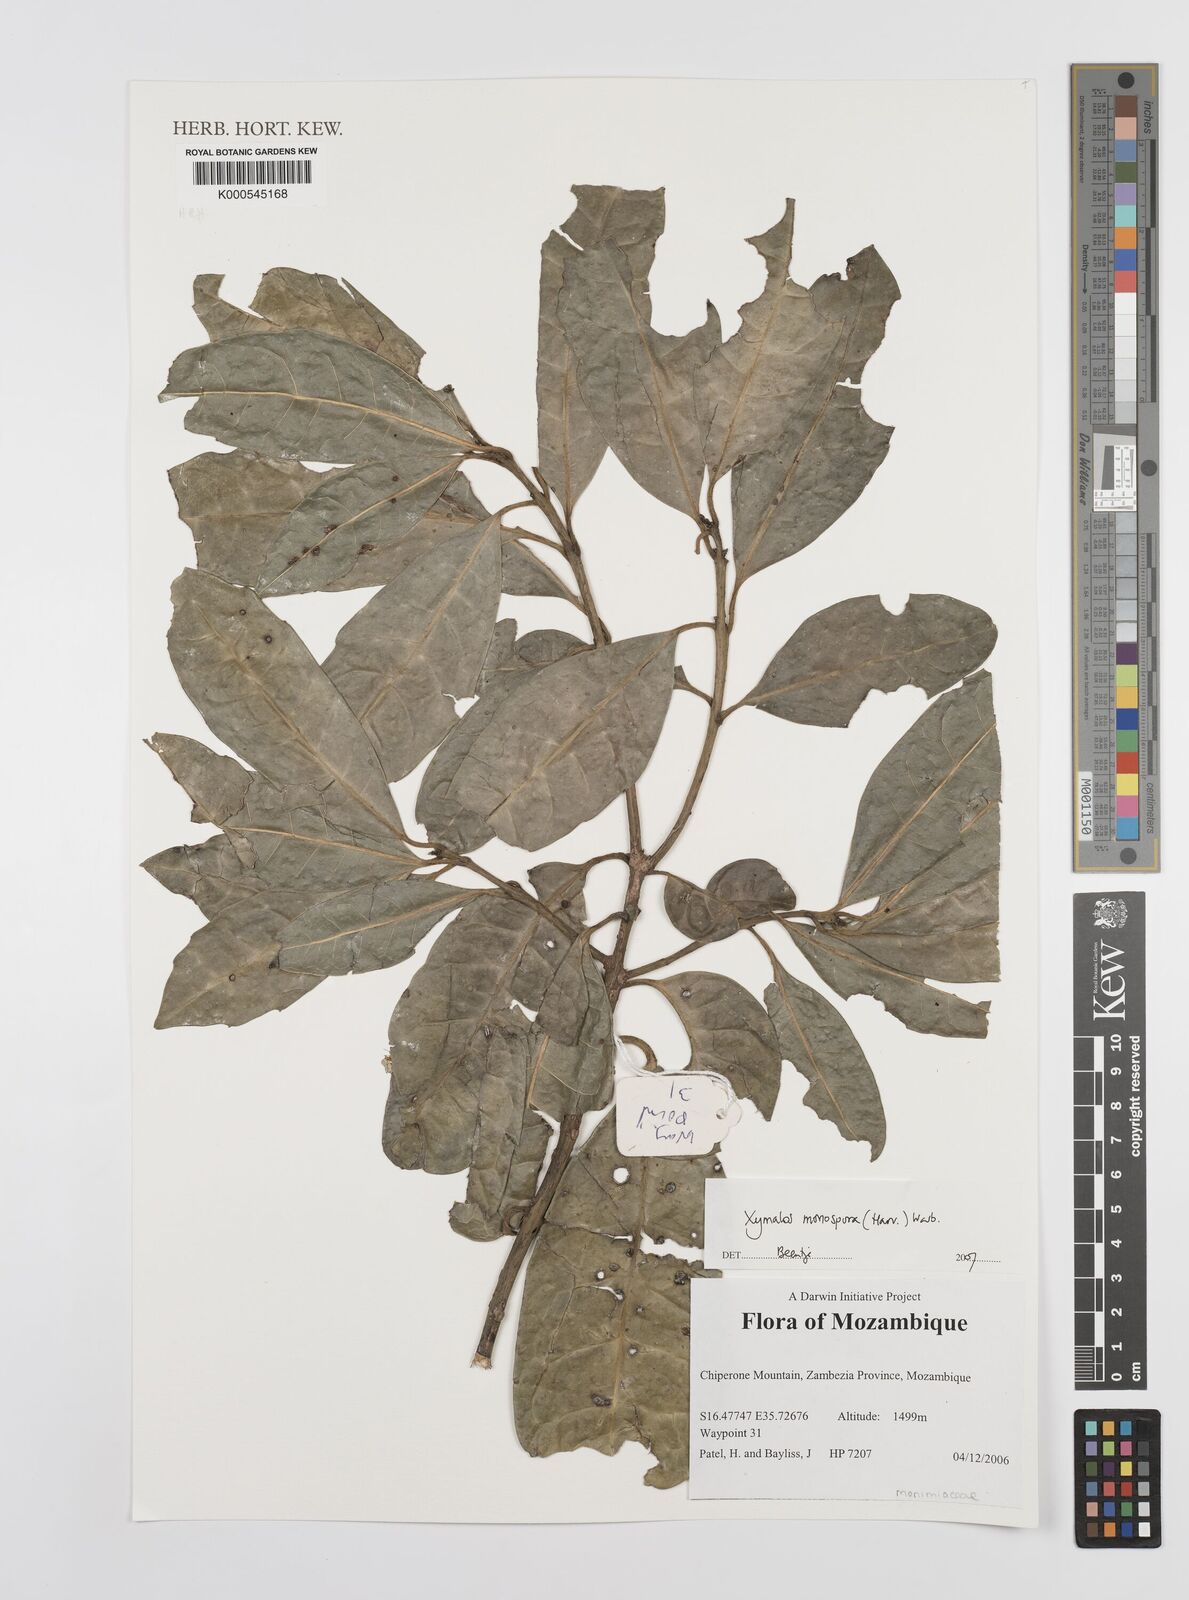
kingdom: Plantae
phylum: Tracheophyta
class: Magnoliopsida
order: Laurales
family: Monimiaceae
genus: Xymalos
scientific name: Xymalos
